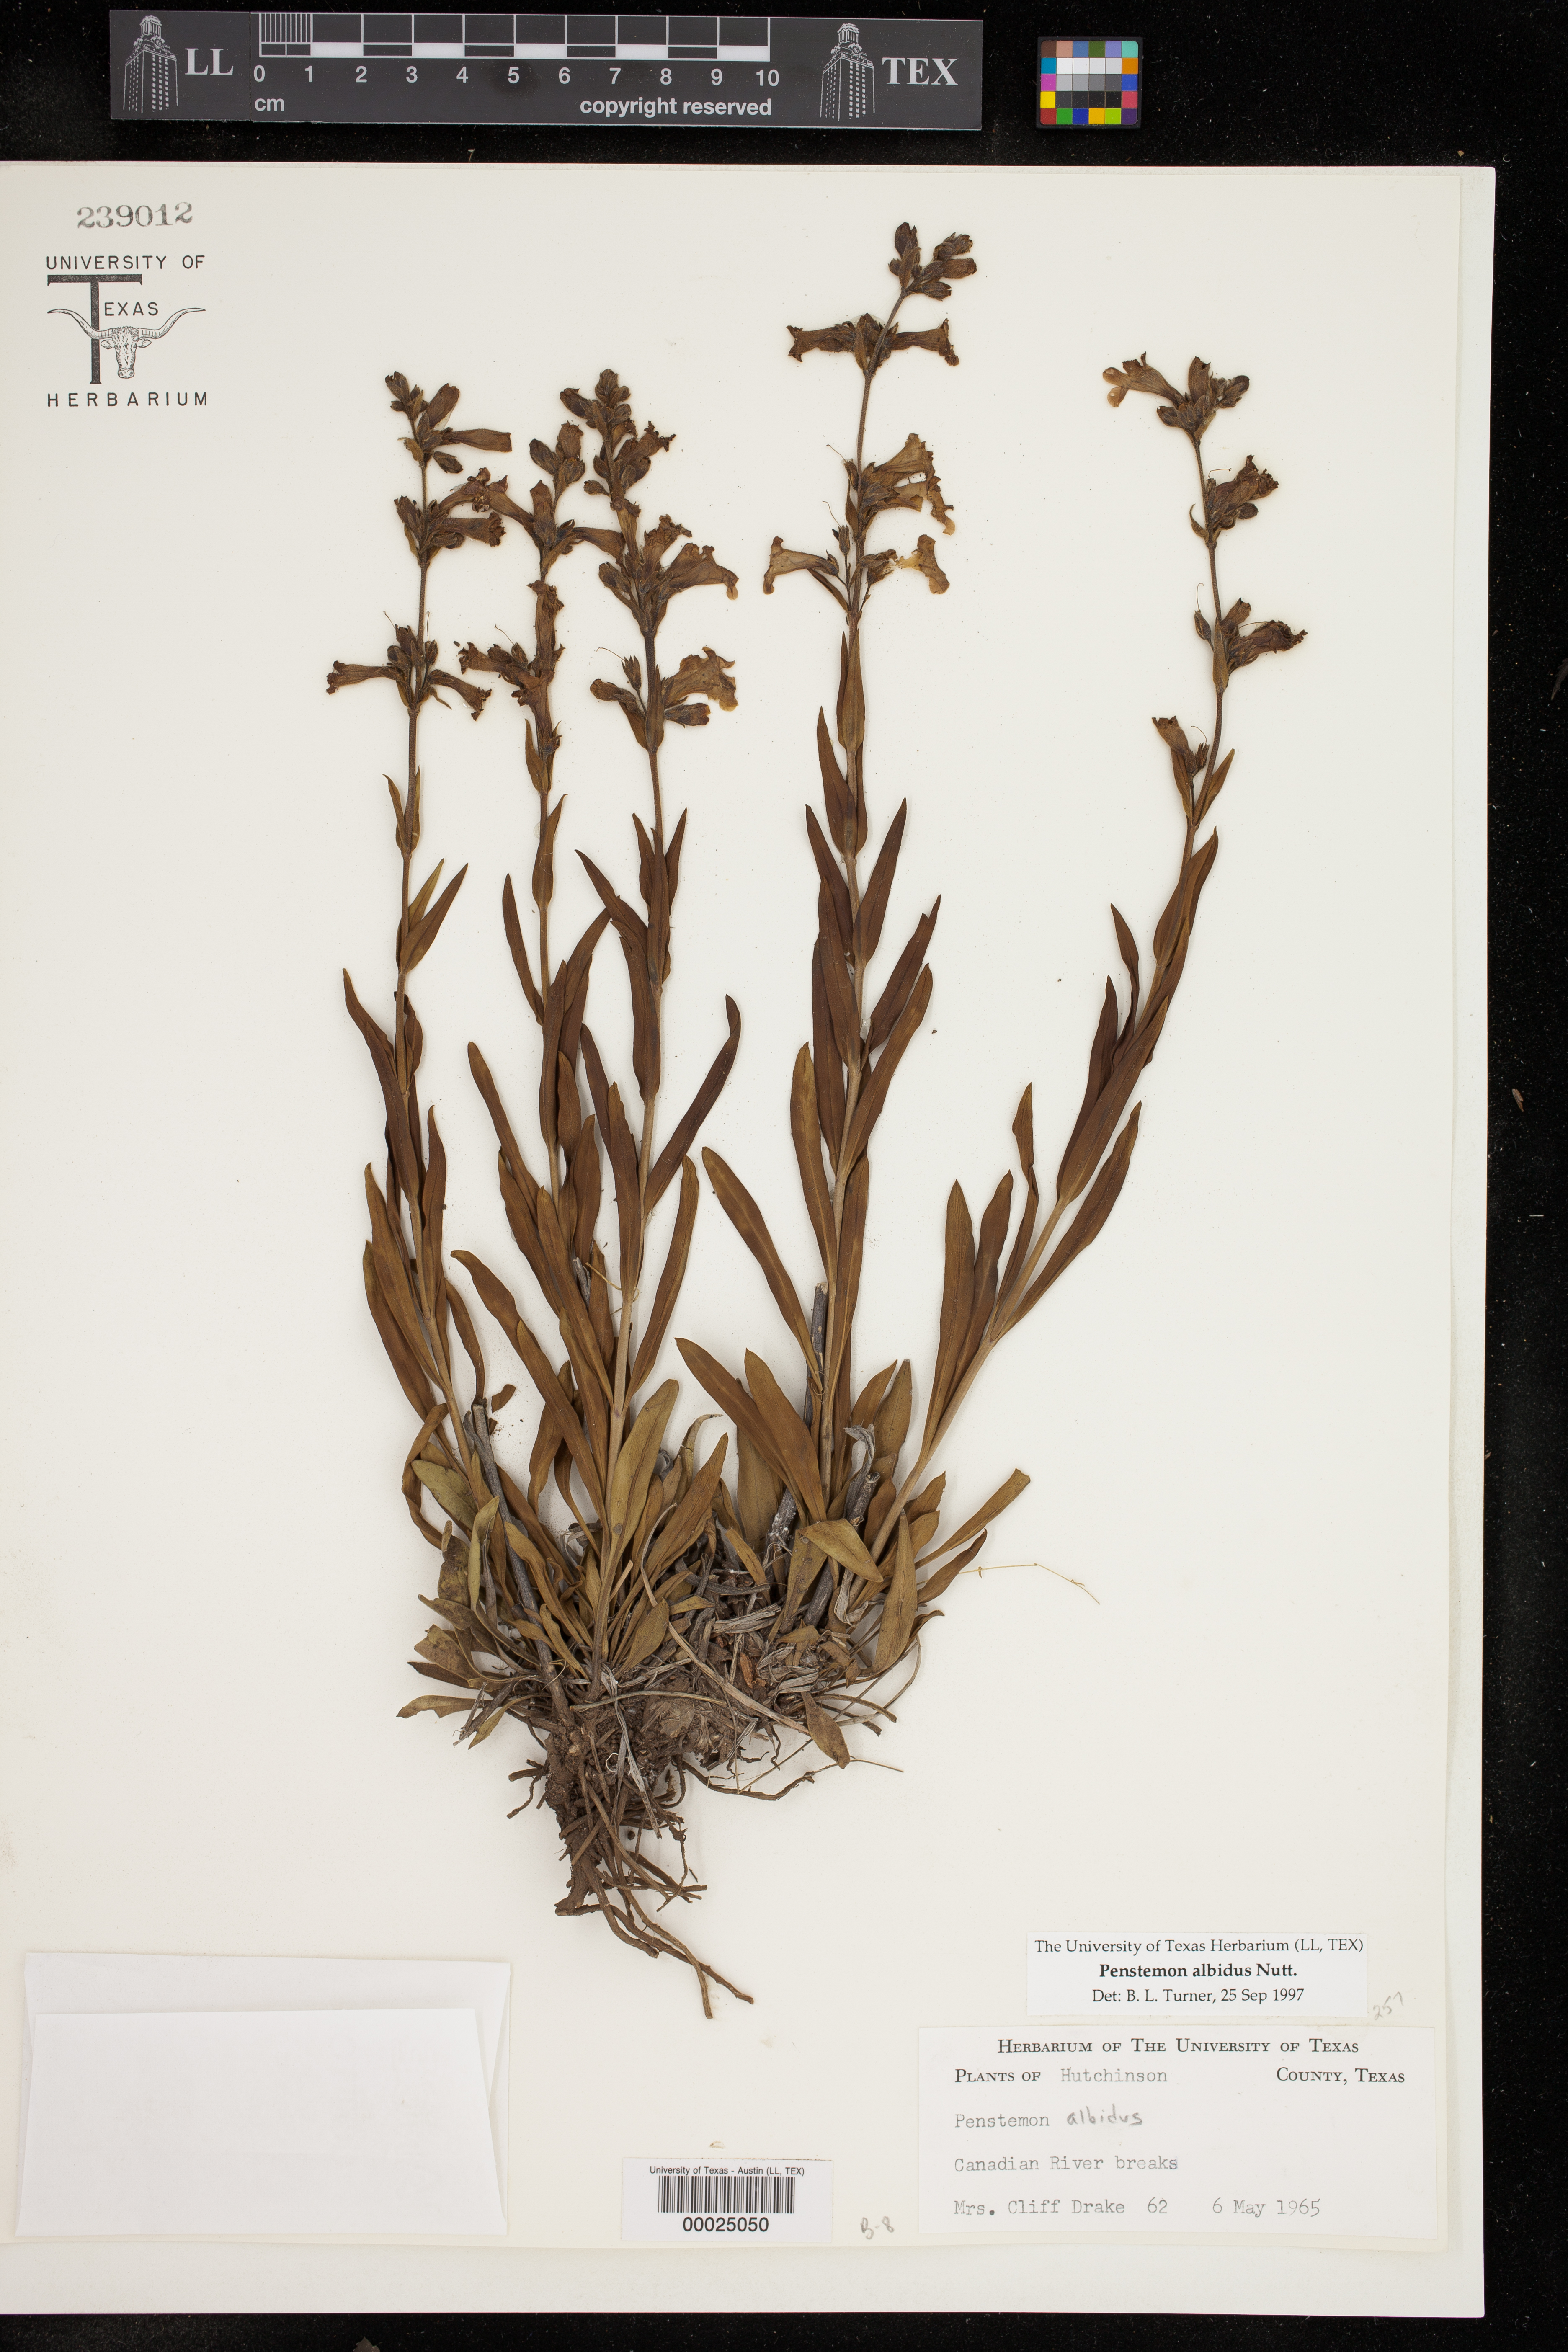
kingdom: Plantae
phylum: Tracheophyta
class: Magnoliopsida
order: Lamiales
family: Plantaginaceae
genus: Penstemon
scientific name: Penstemon albidus
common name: White beardtongue
